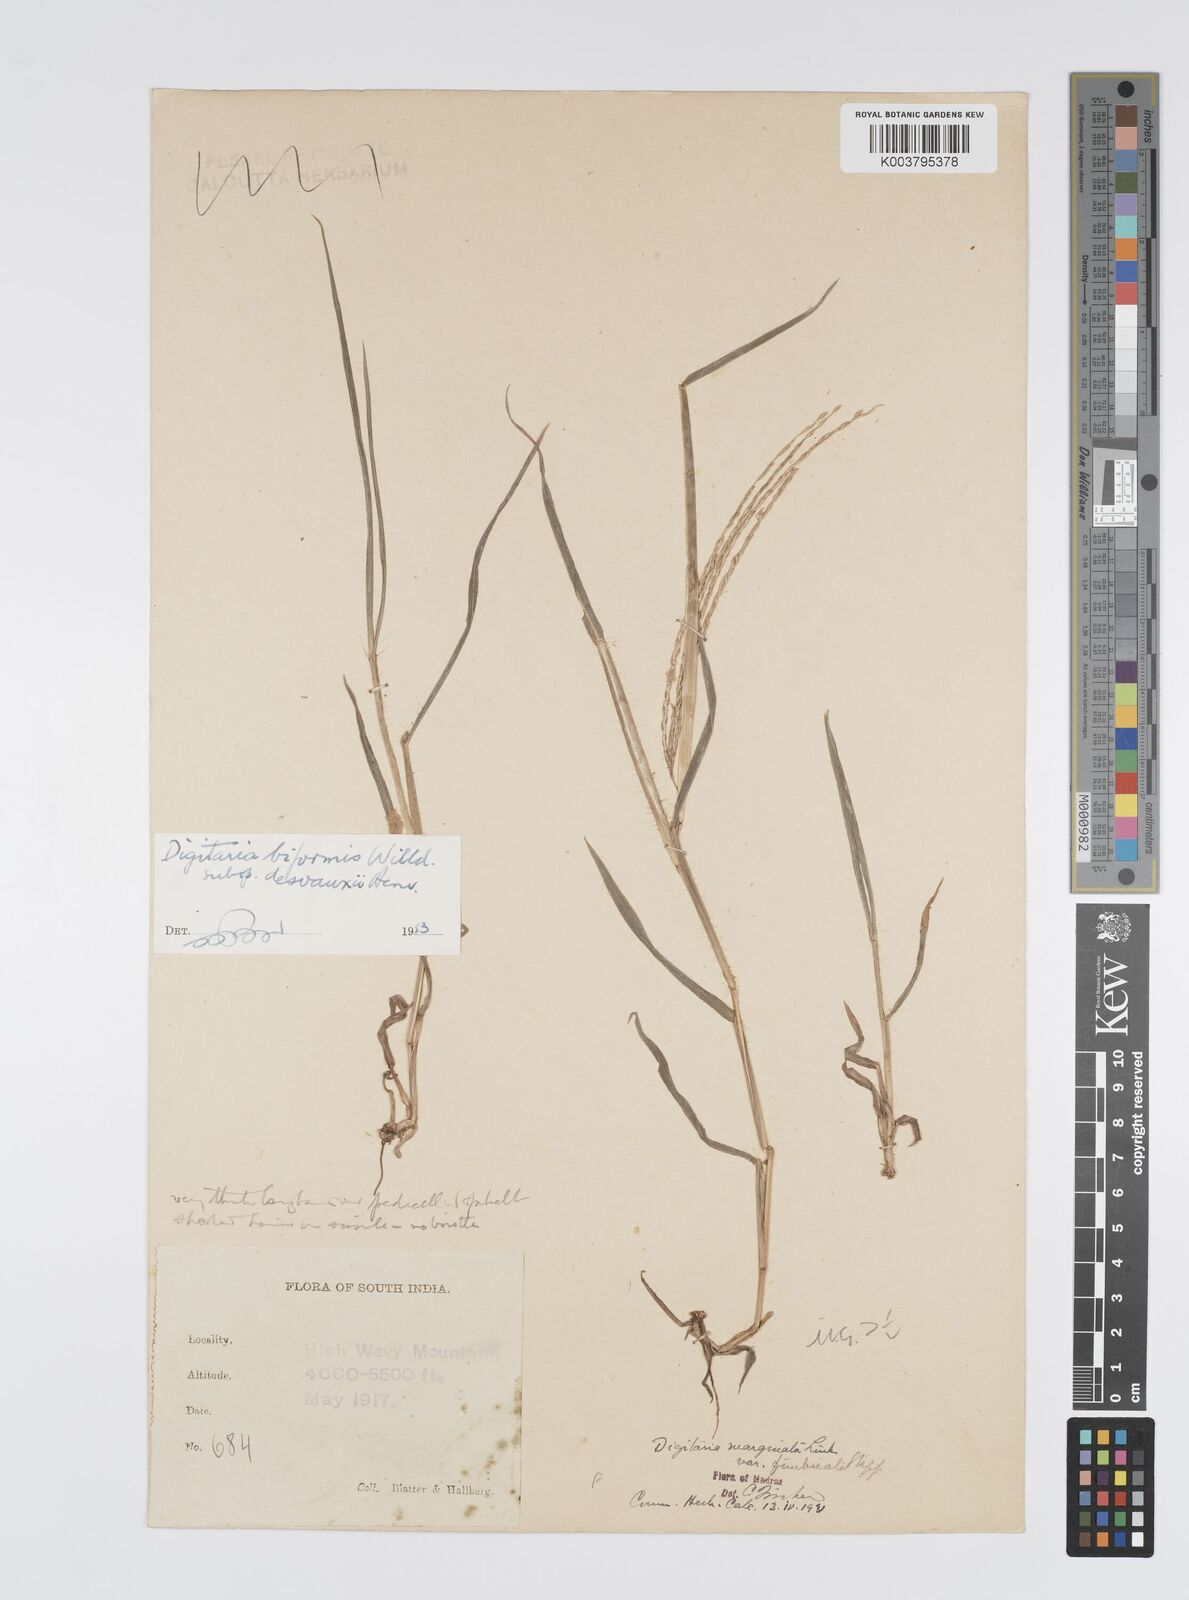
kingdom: Plantae
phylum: Tracheophyta
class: Liliopsida
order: Poales
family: Poaceae
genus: Digitaria
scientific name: Digitaria ciliaris
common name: Tropical finger-grass
